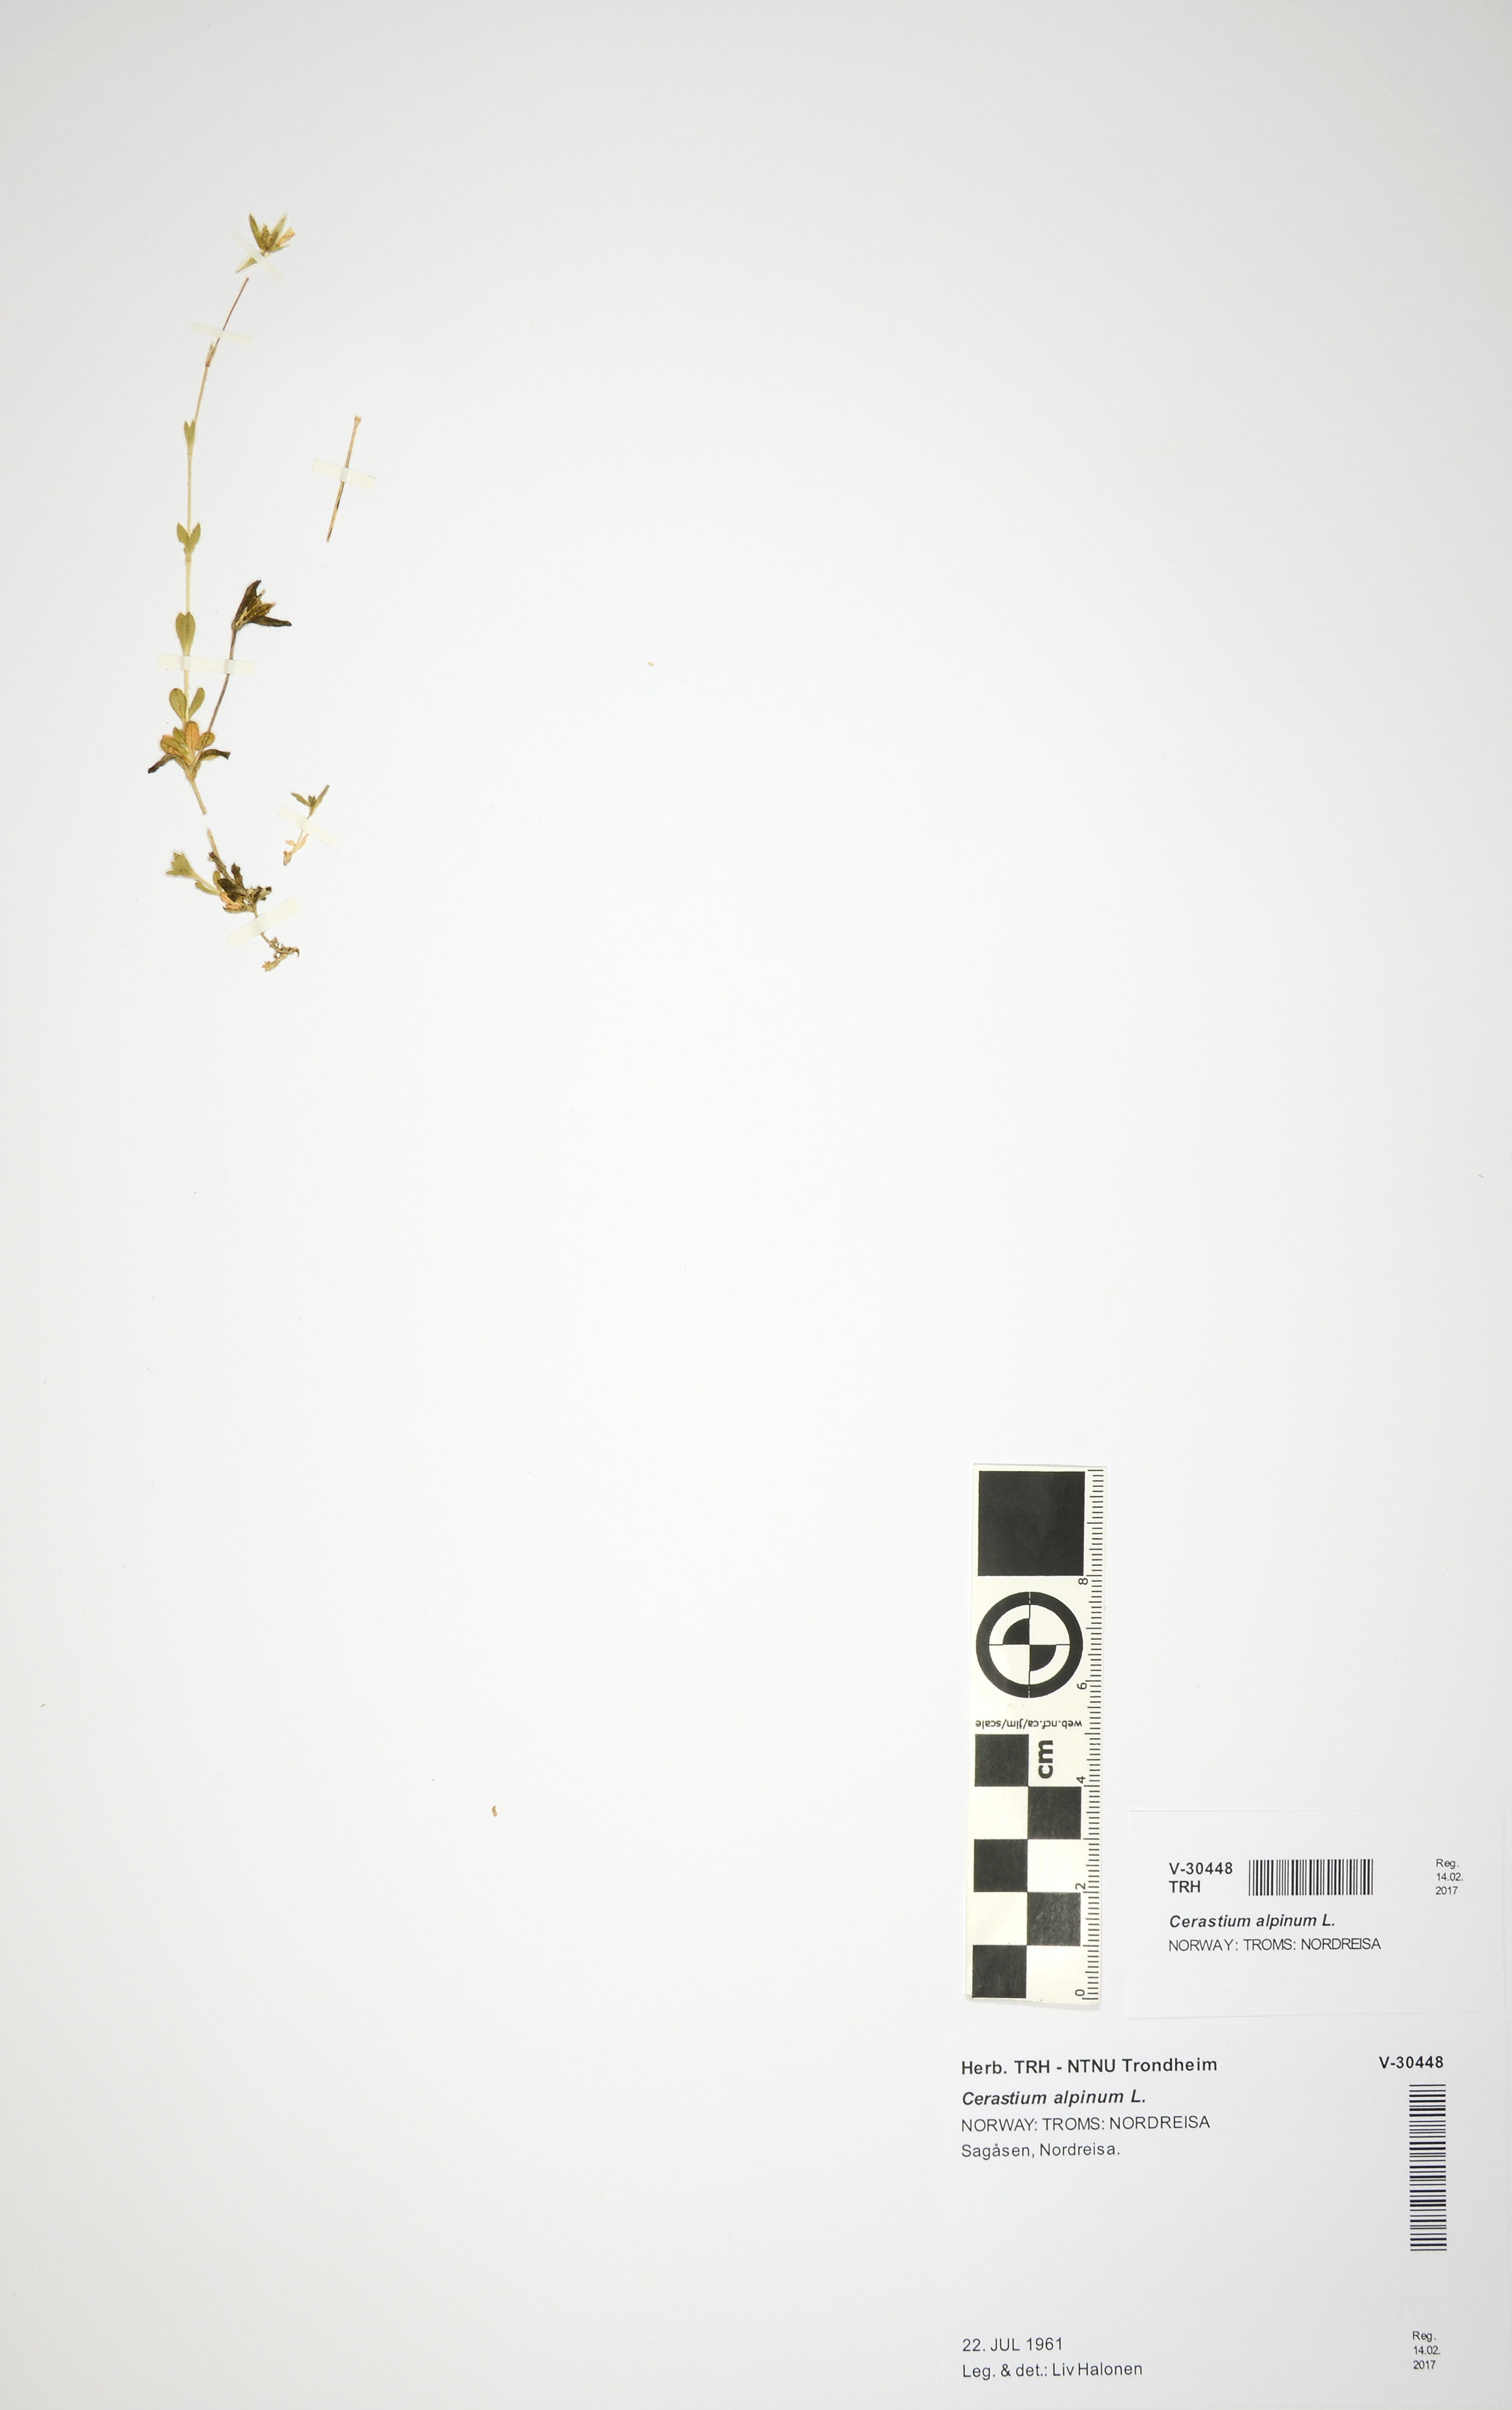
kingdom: Plantae
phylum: Tracheophyta
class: Magnoliopsida
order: Caryophyllales
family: Caryophyllaceae
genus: Cerastium
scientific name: Cerastium alpinum
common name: Alpine mouse-ear
